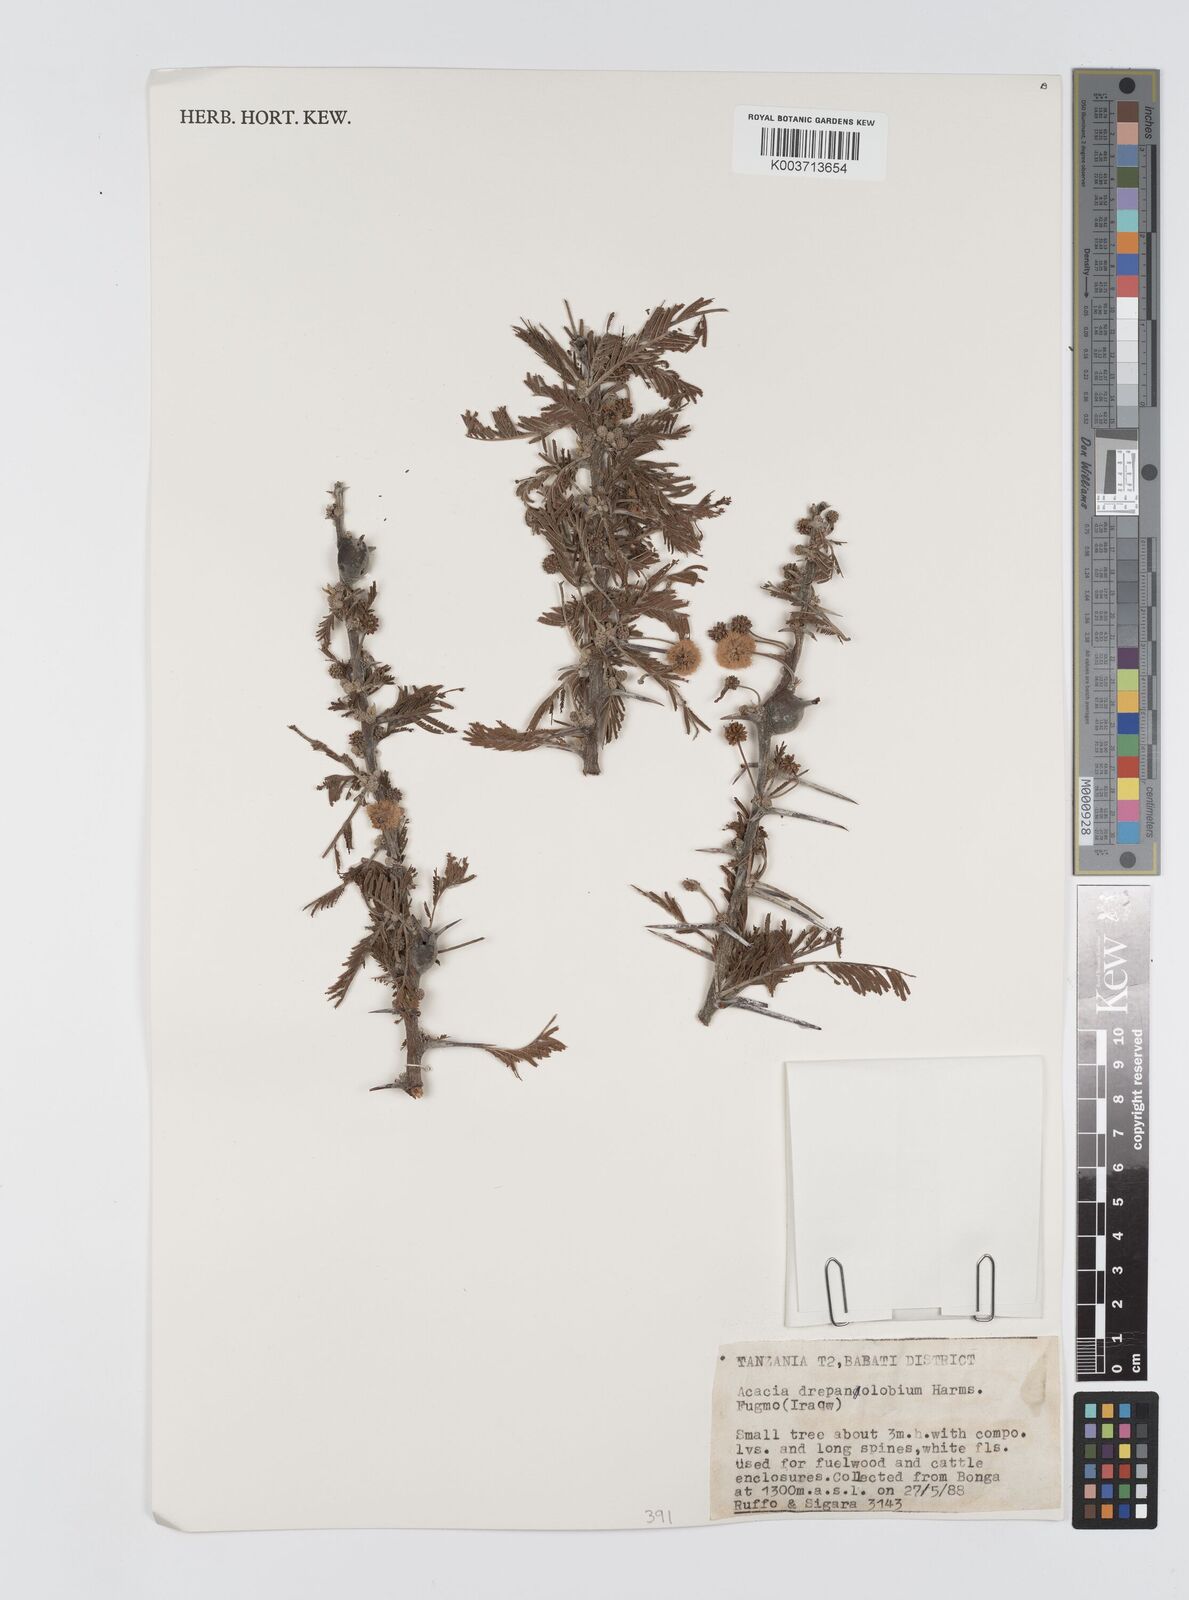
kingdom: Plantae
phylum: Tracheophyta
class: Magnoliopsida
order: Fabales
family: Fabaceae
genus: Vachellia
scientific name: Vachellia drepanolobium
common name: Whistling thorn
